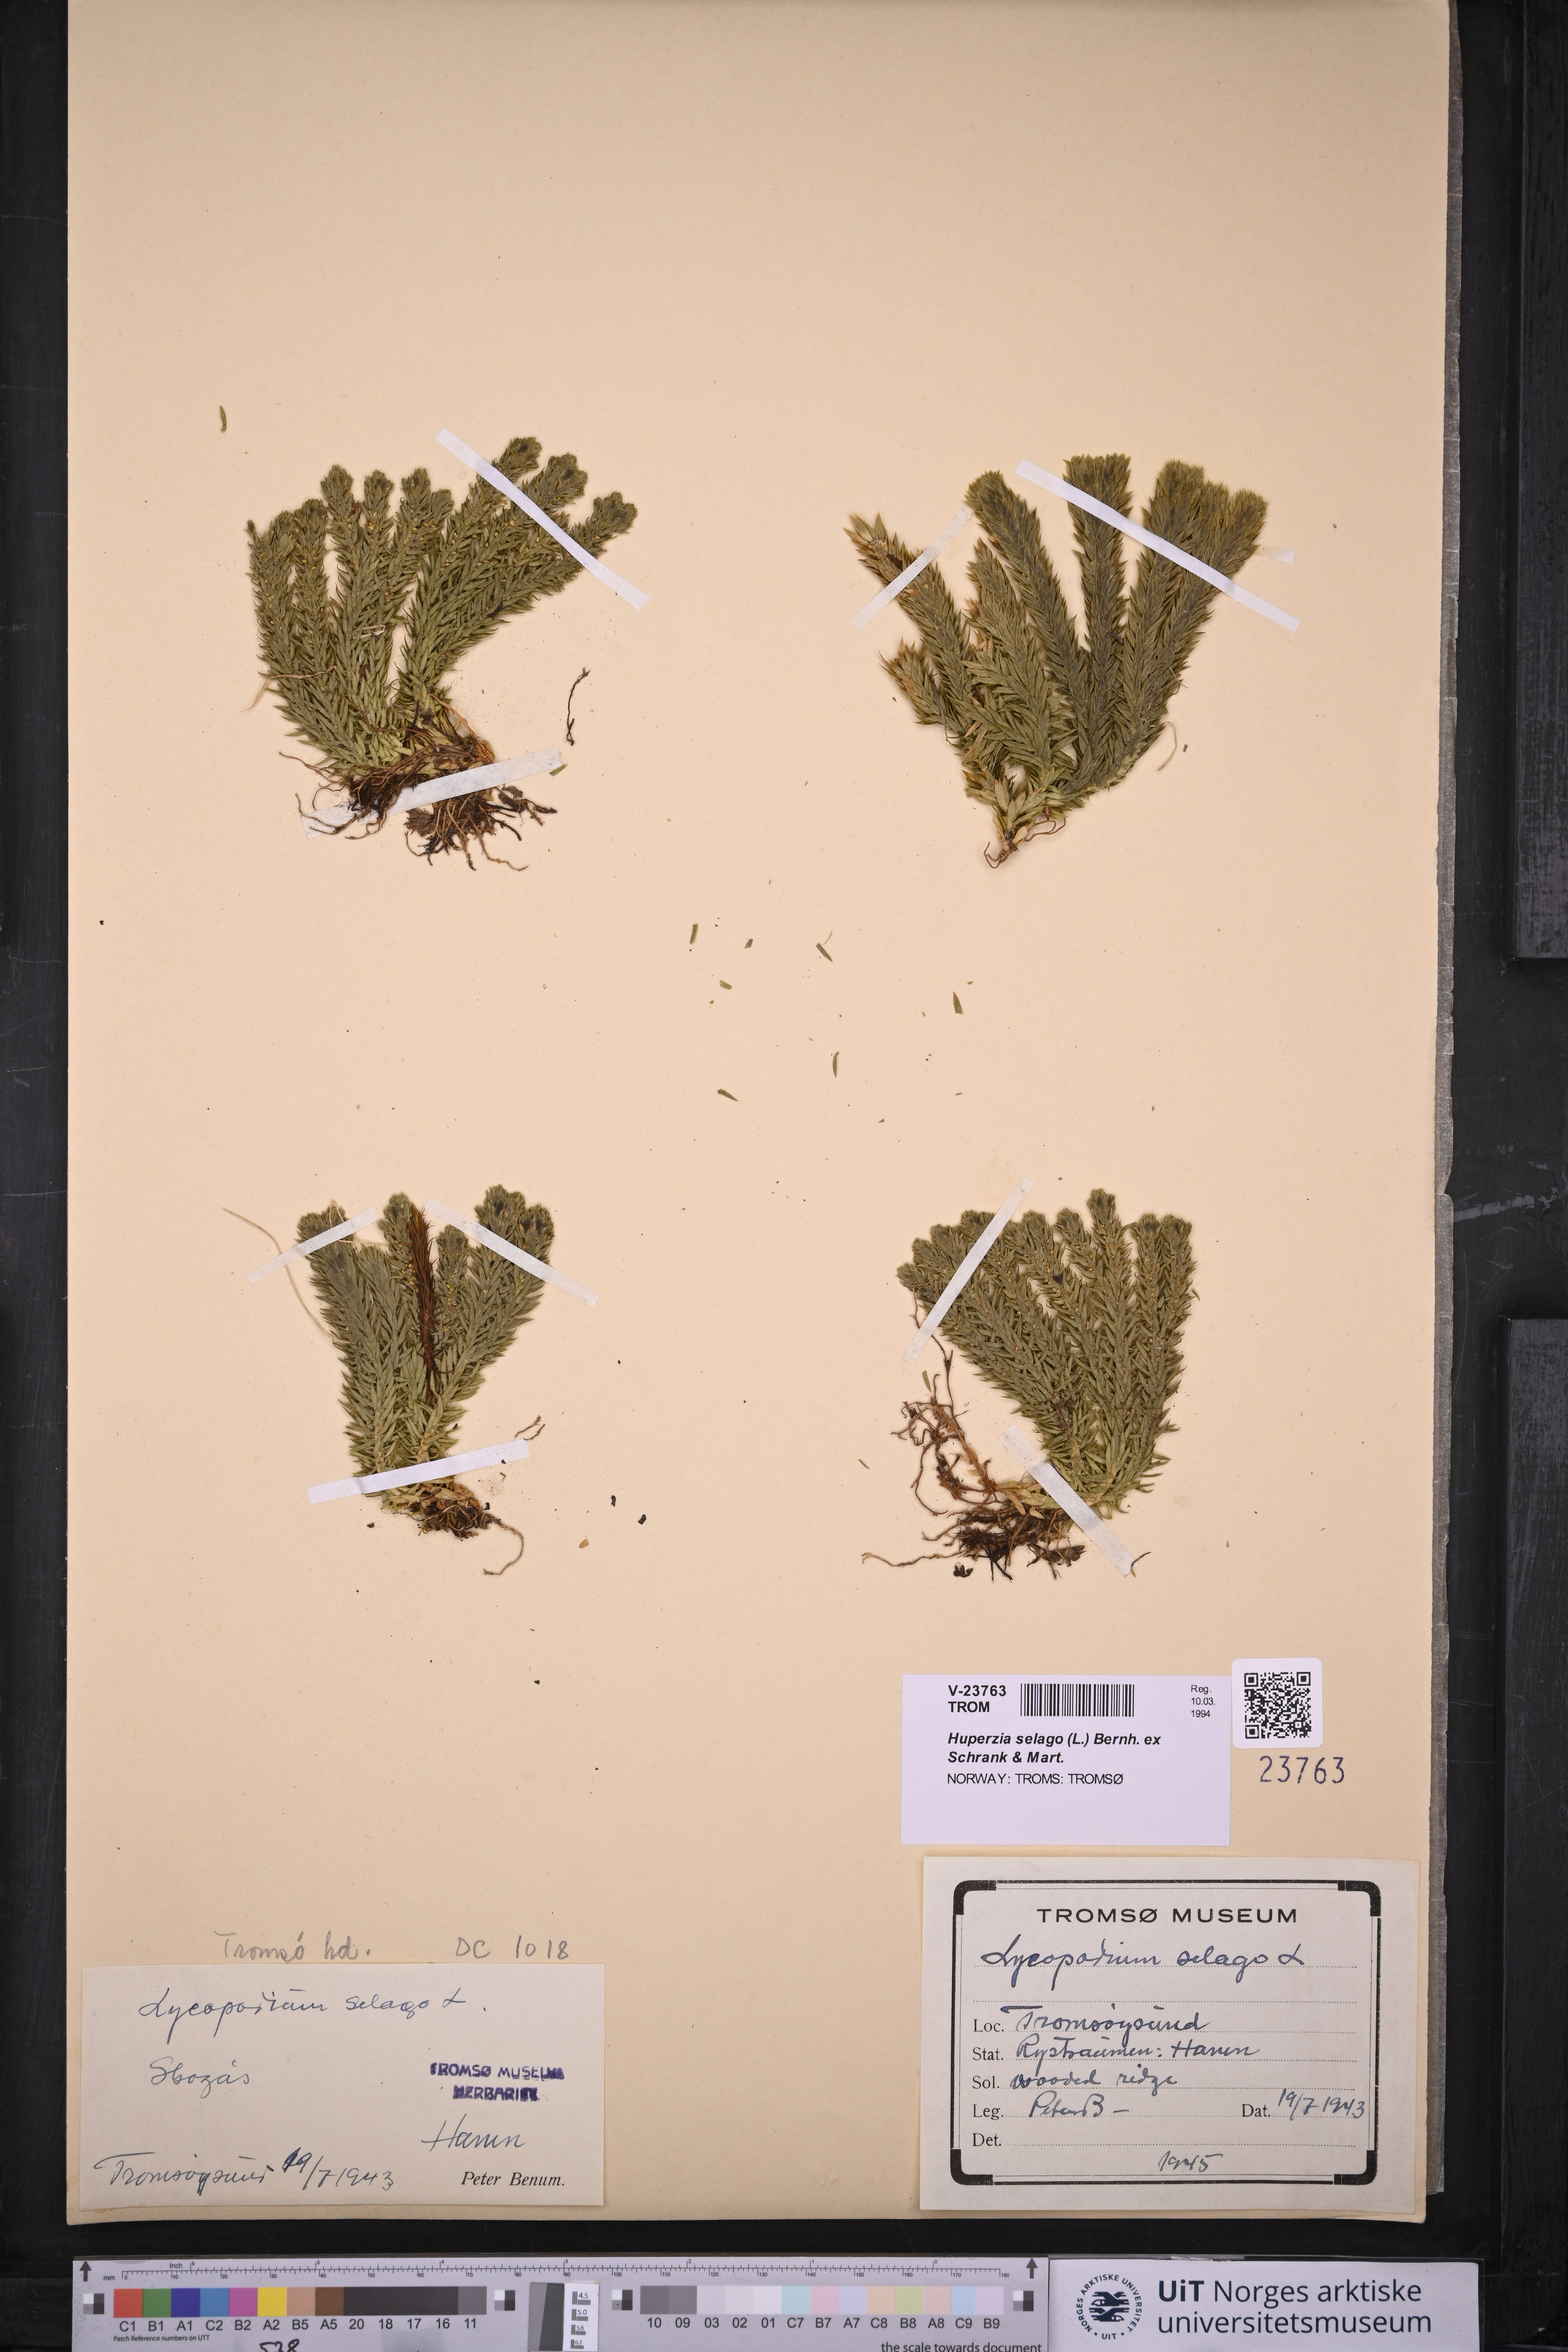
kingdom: Plantae
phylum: Tracheophyta
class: Lycopodiopsida
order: Lycopodiales
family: Lycopodiaceae
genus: Huperzia
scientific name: Huperzia selago
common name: Northern firmoss
